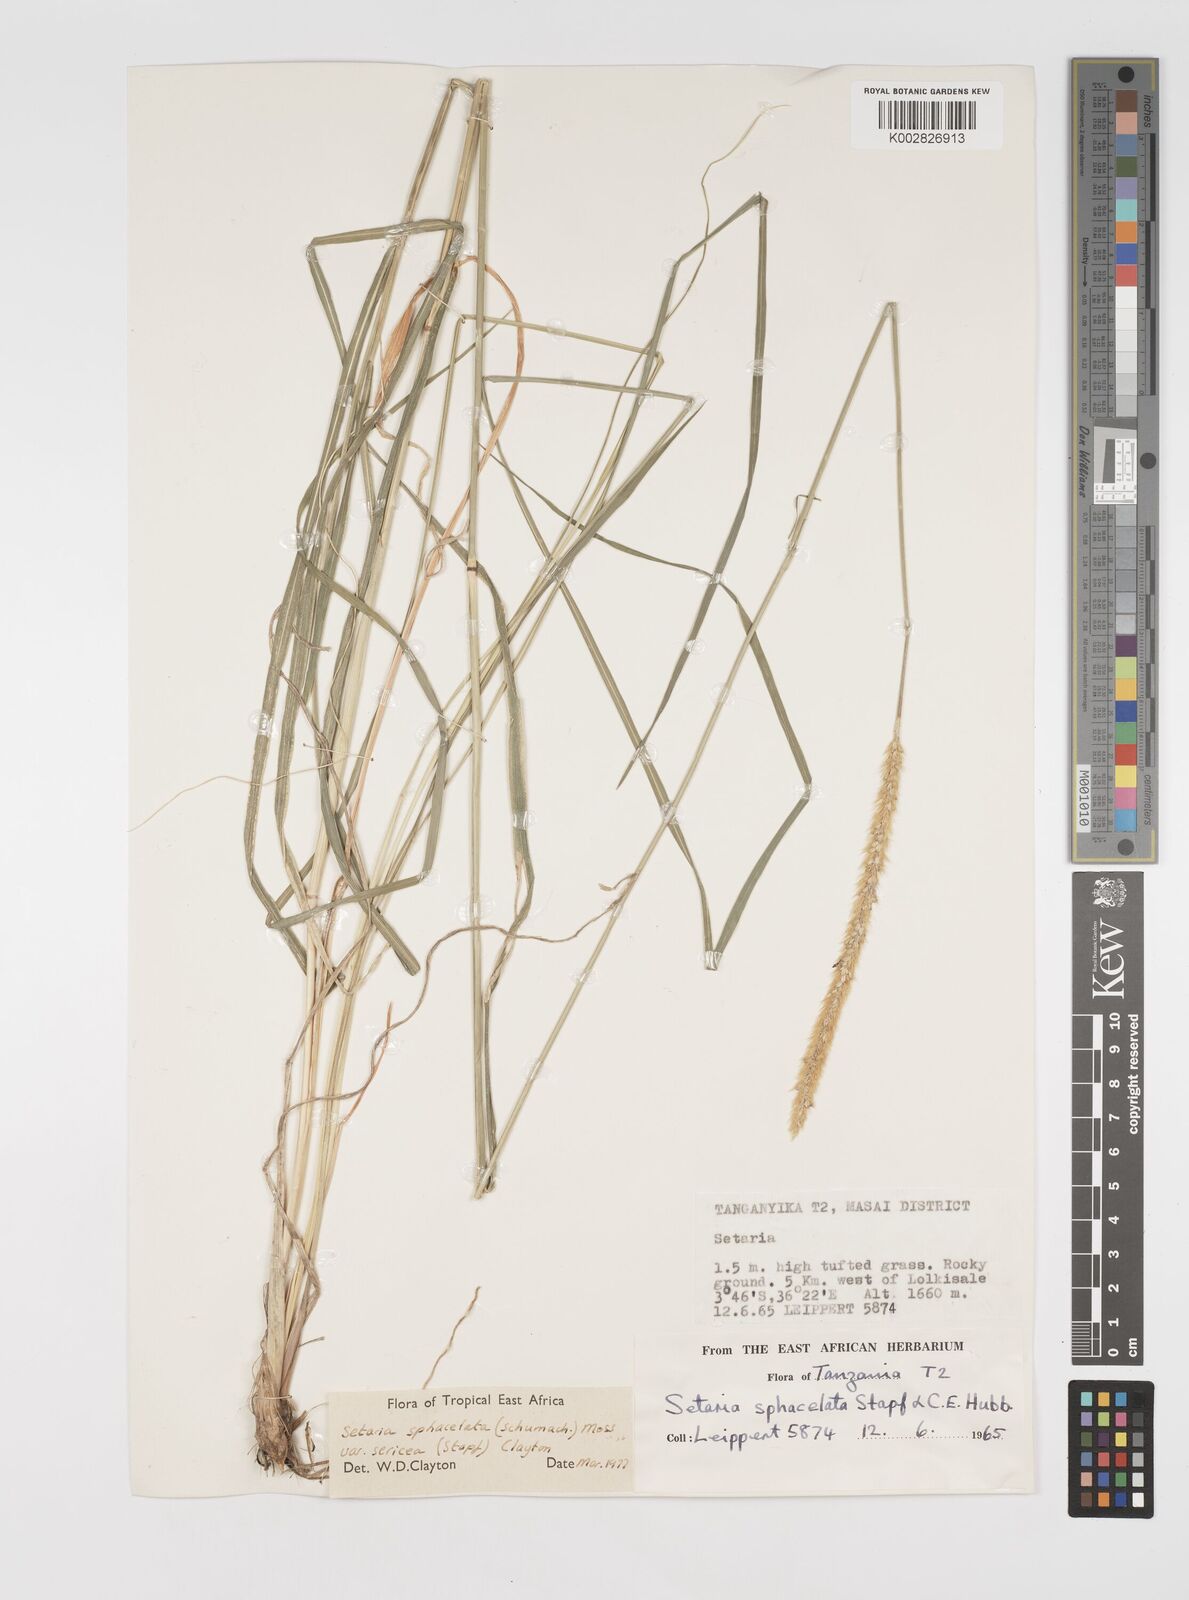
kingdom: Plantae
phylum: Tracheophyta
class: Liliopsida
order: Poales
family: Poaceae
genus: Setaria
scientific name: Setaria sphacelata
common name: African bristlegrass
